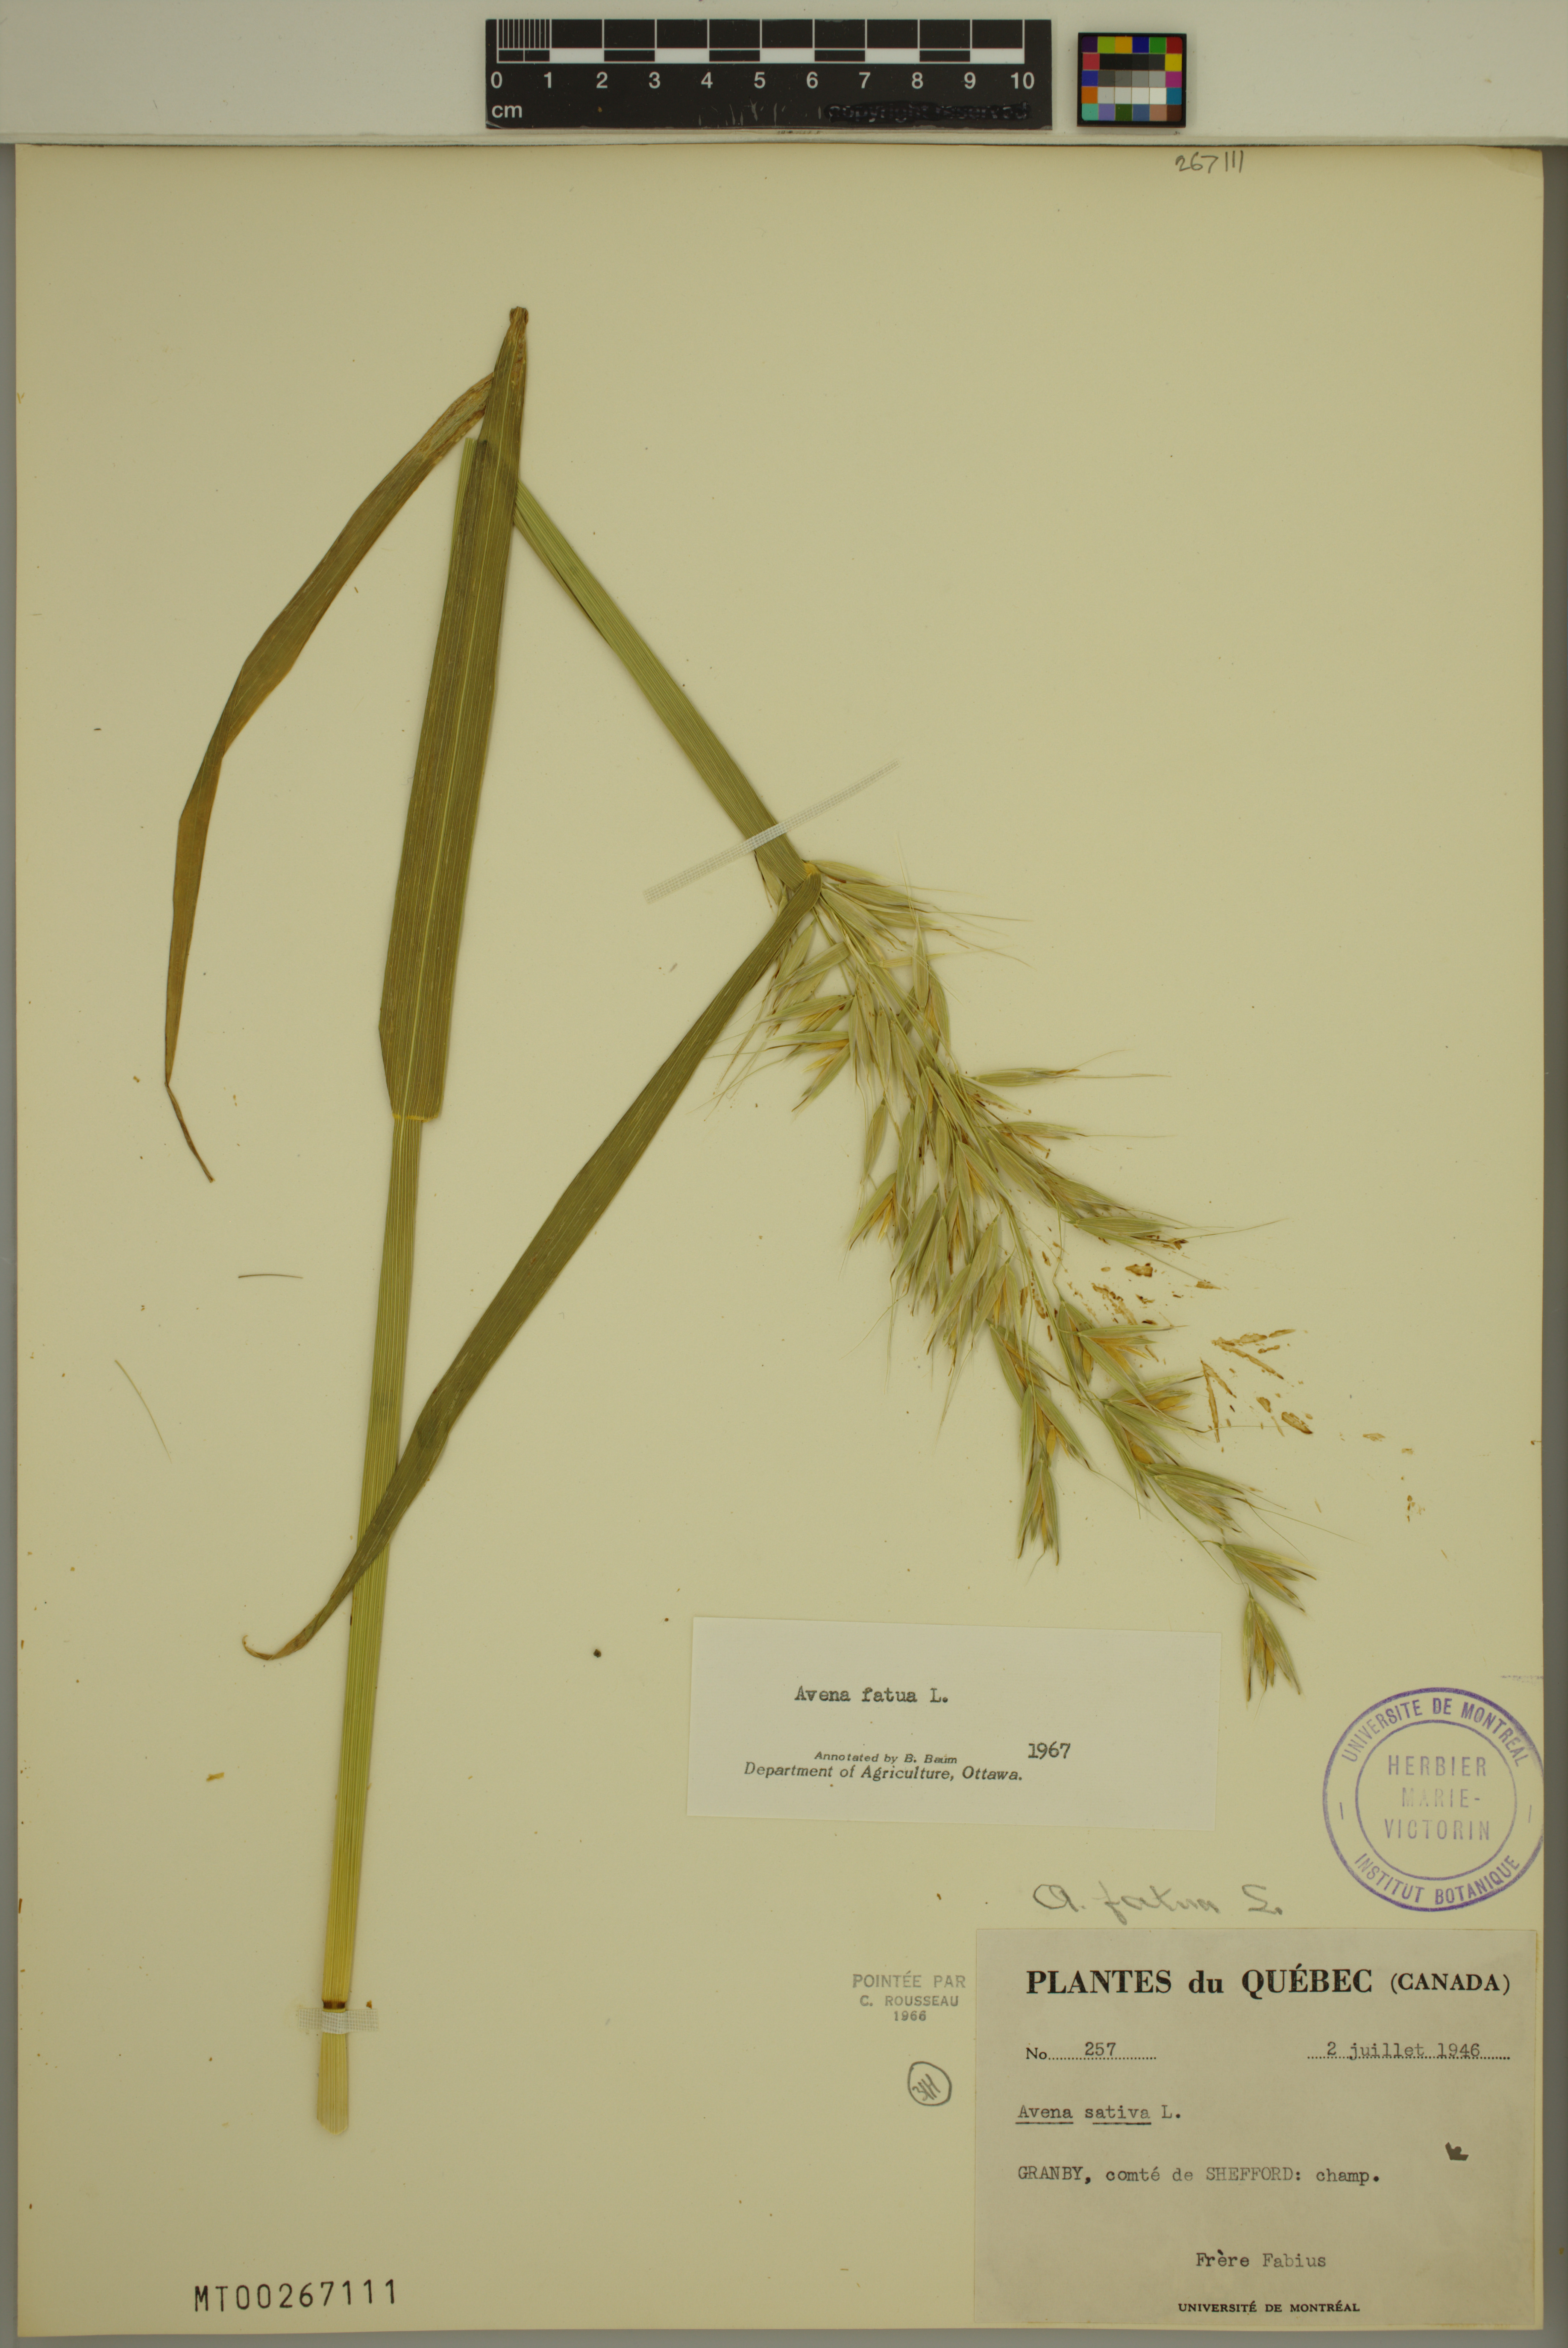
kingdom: Plantae
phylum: Tracheophyta
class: Liliopsida
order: Poales
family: Poaceae
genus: Avena
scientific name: Avena fatua
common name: Wild oat
